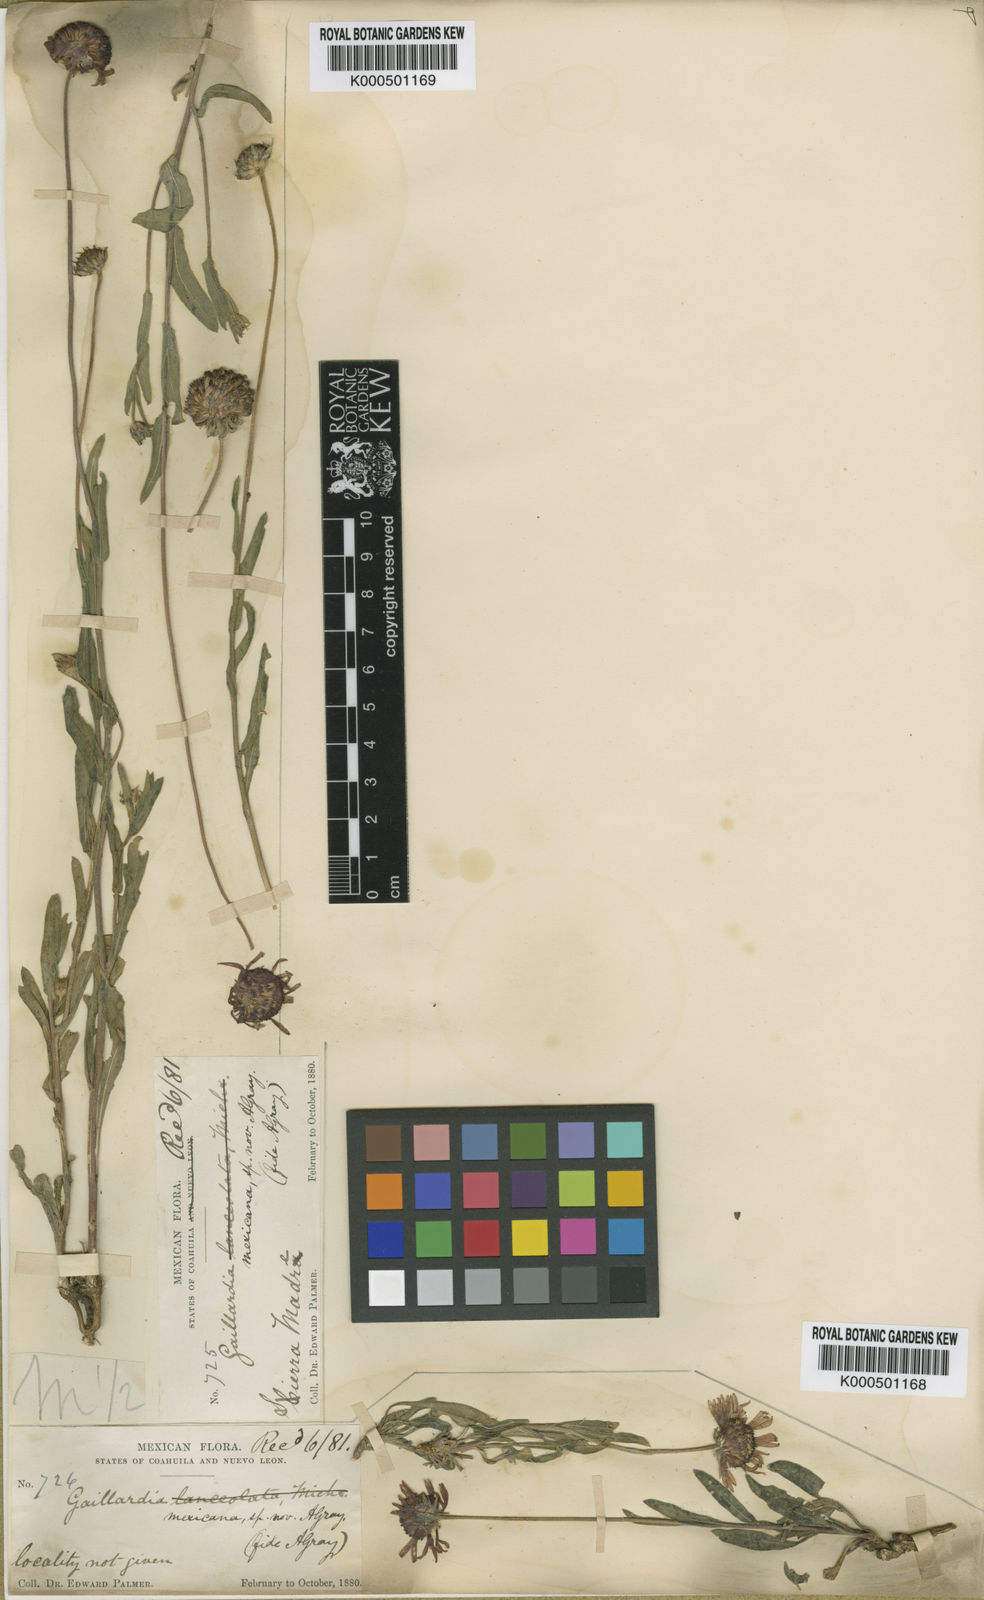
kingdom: Plantae
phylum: Tracheophyta
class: Magnoliopsida
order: Asterales
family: Asteraceae
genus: Gaillardia
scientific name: Gaillardia mexicana
